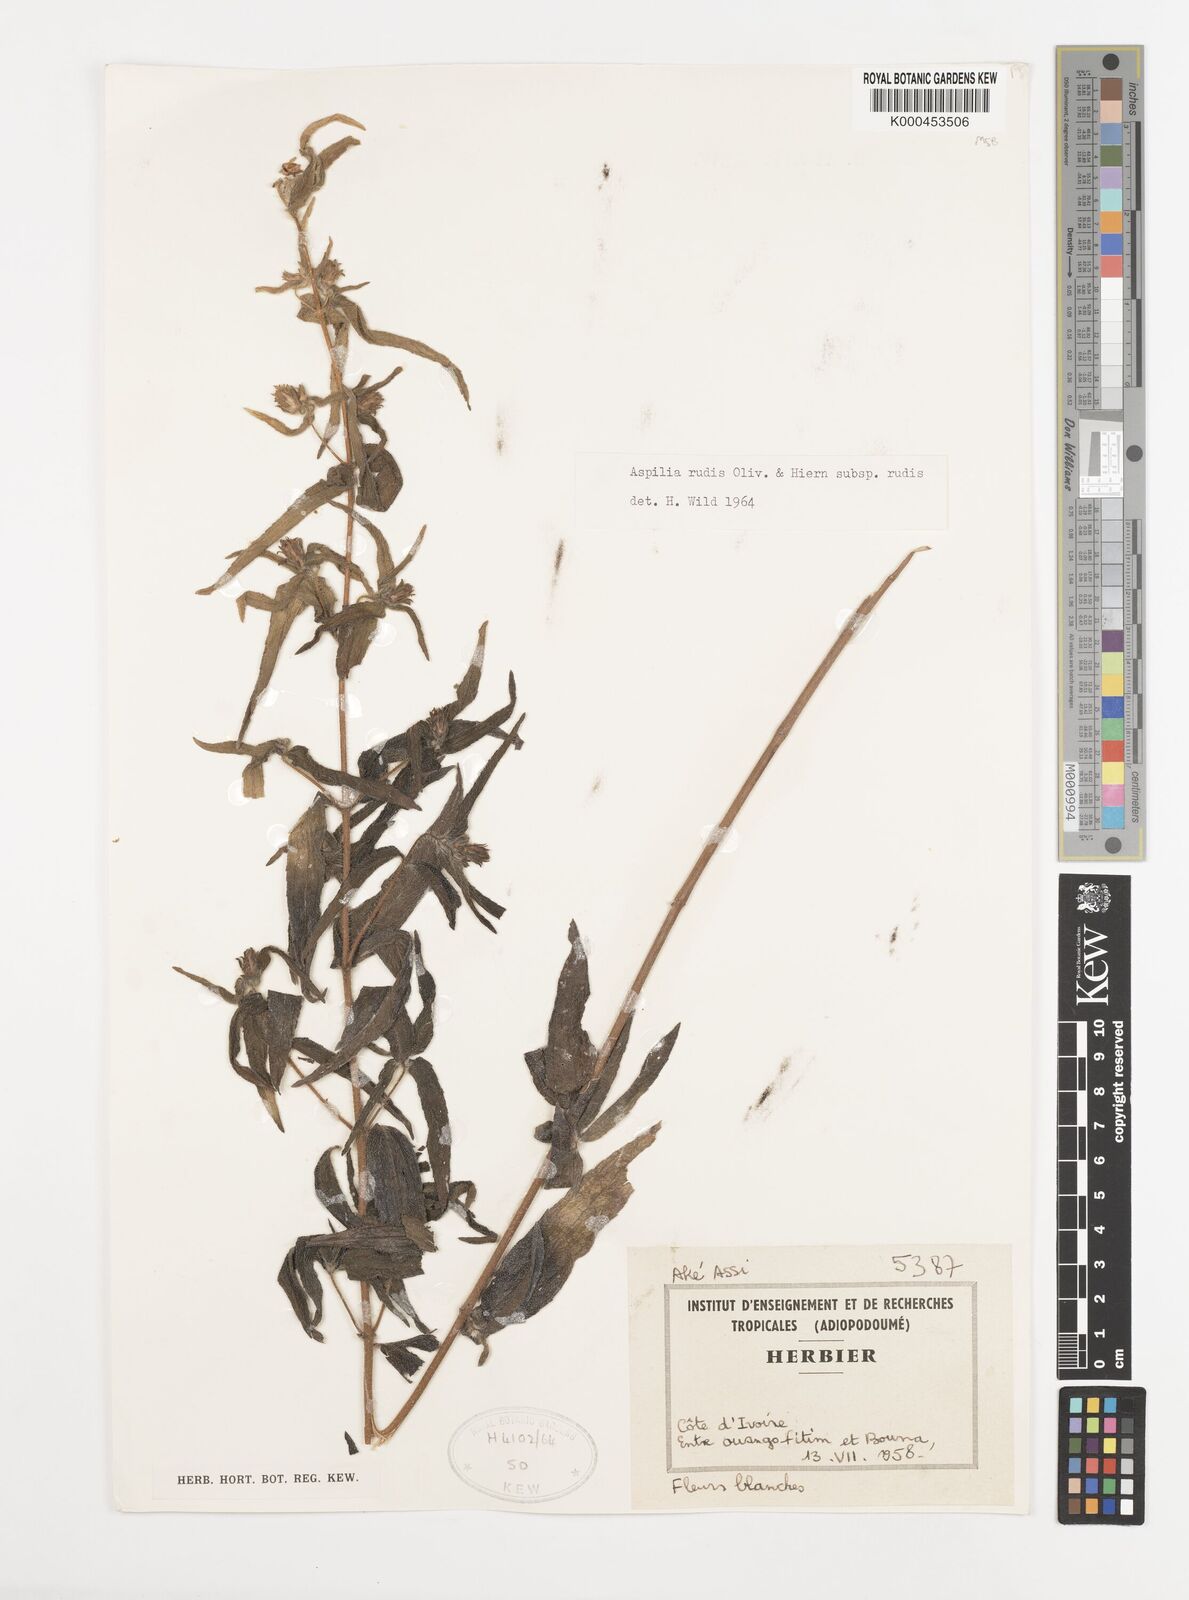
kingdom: Plantae
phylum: Tracheophyta
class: Magnoliopsida
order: Asterales
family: Asteraceae
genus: Aspilia
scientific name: Aspilia rudis
